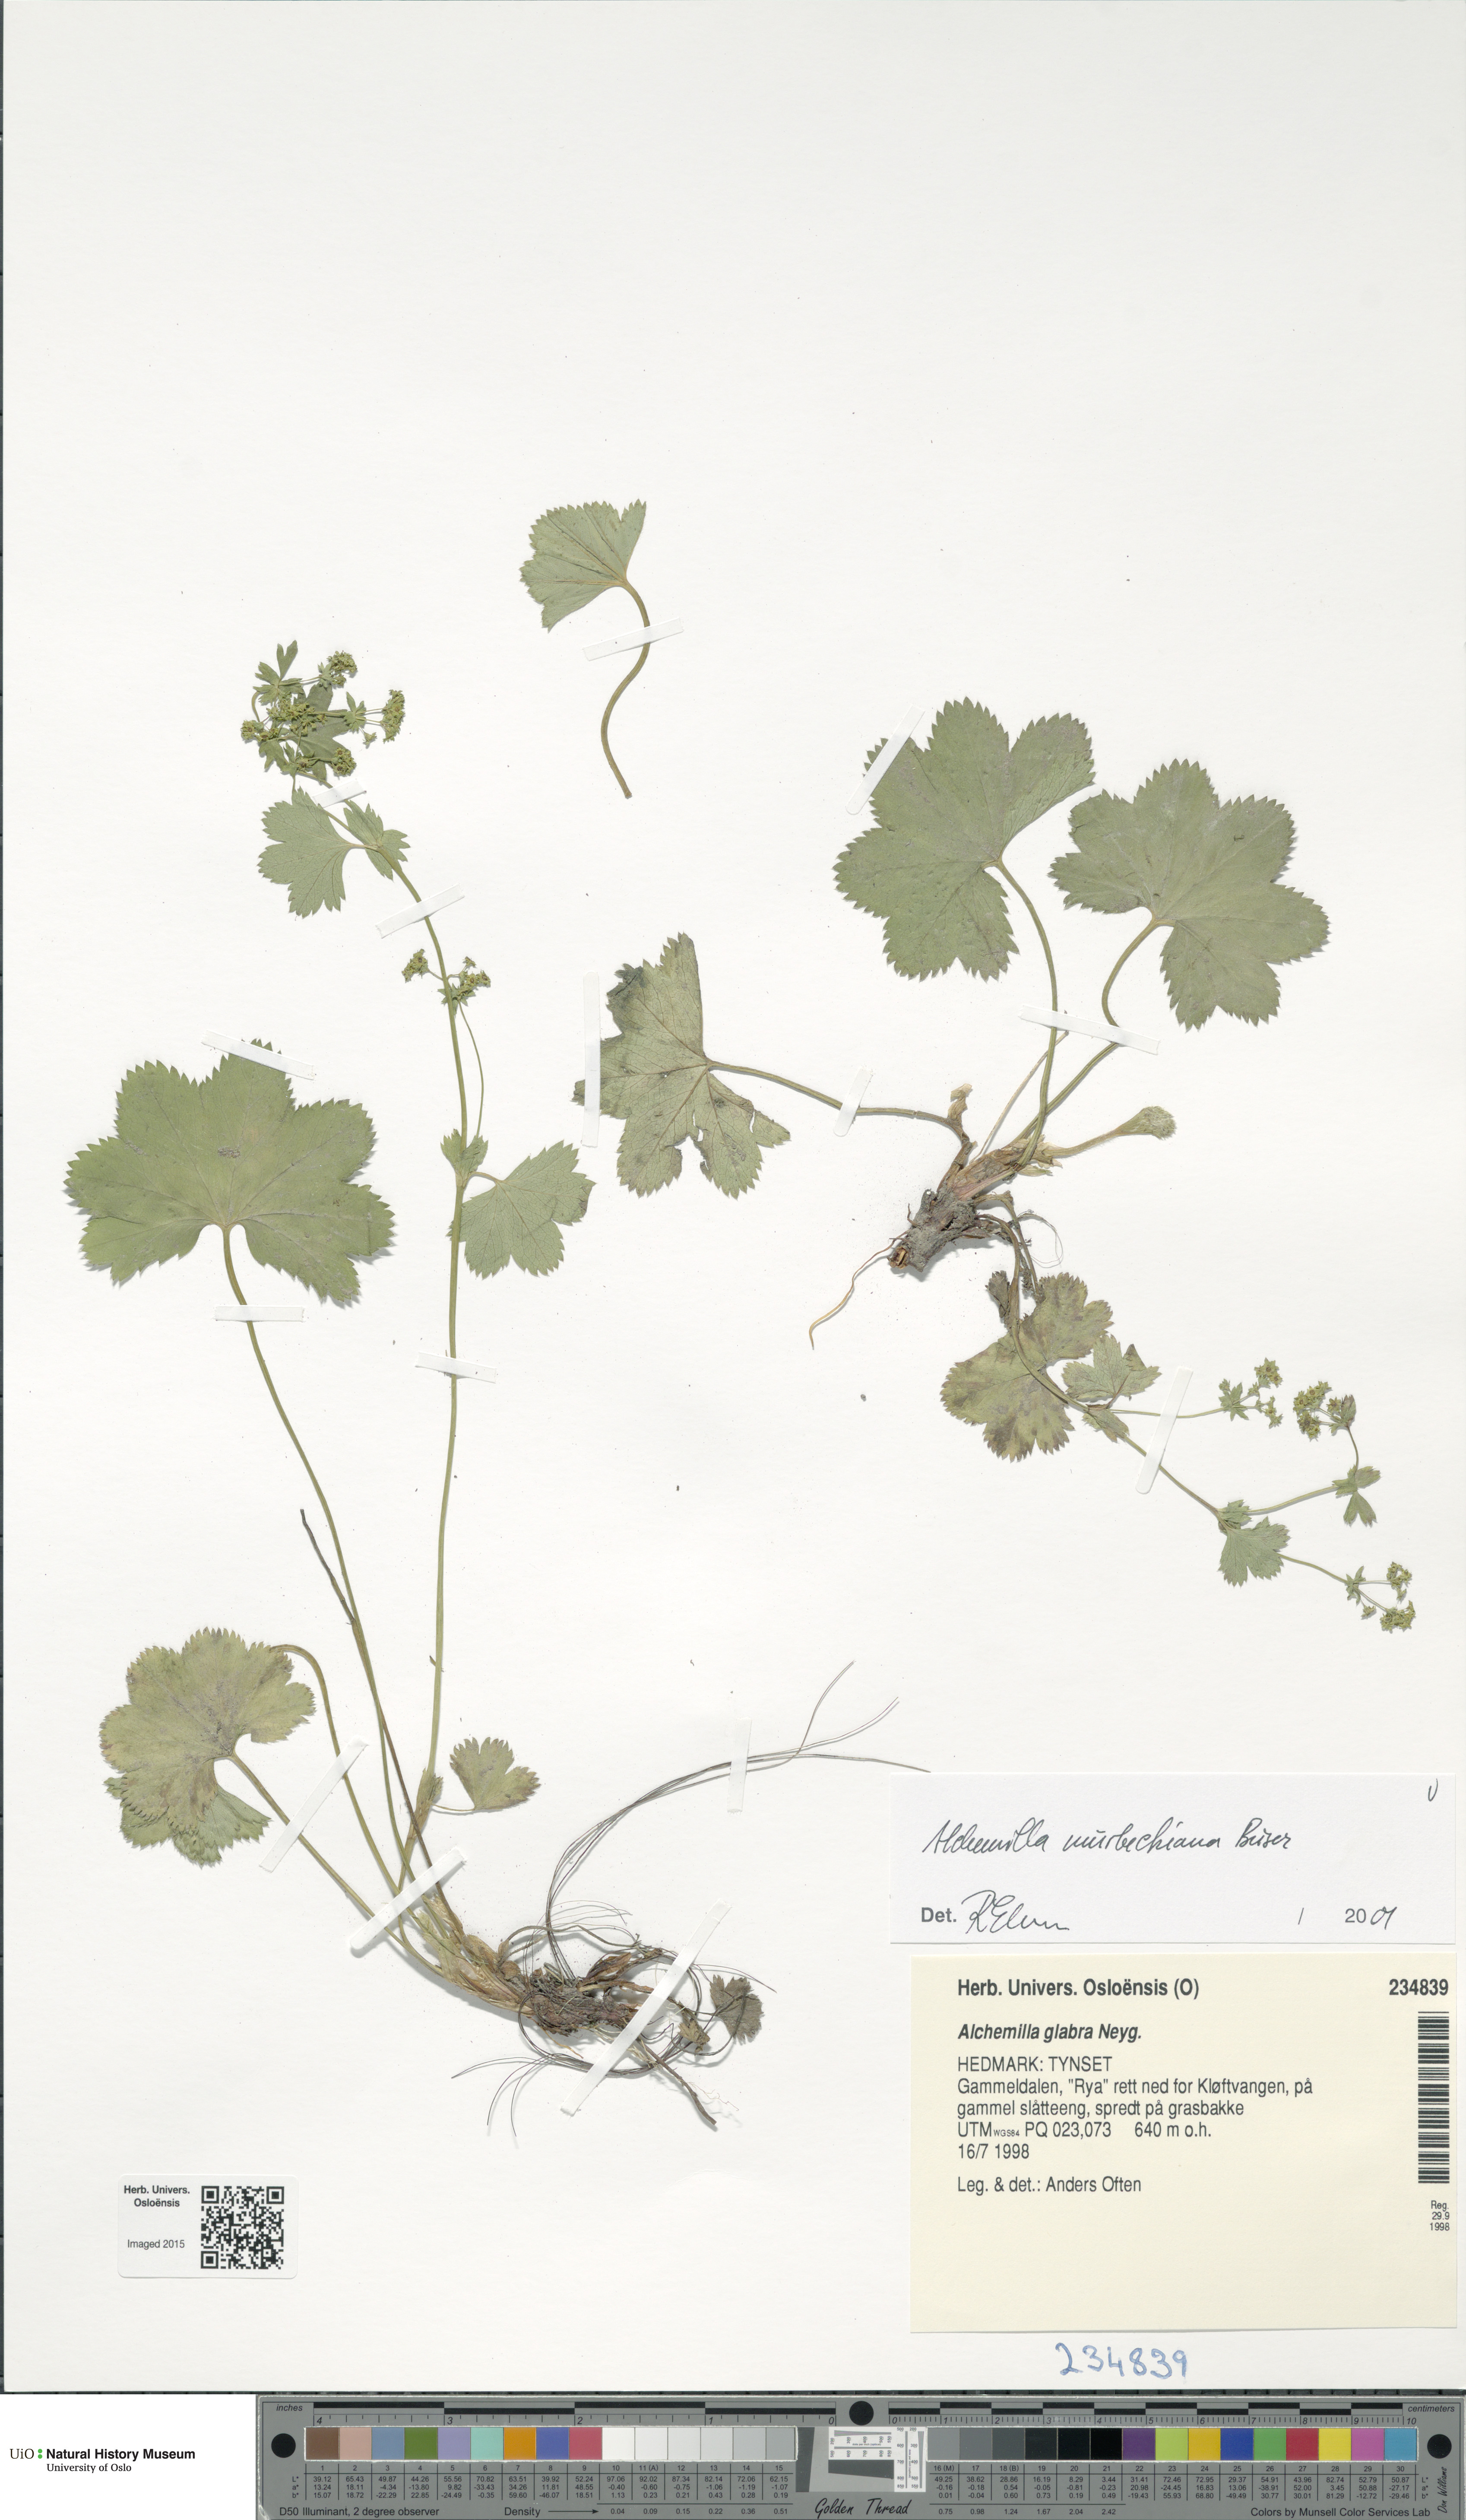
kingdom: Plantae
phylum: Tracheophyta
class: Magnoliopsida
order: Rosales
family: Rosaceae
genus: Alchemilla
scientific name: Alchemilla murbeckiana
